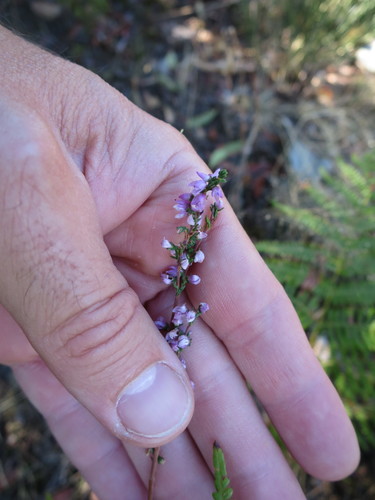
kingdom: Plantae
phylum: Tracheophyta
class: Magnoliopsida
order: Ericales
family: Ericaceae
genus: Calluna
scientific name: Calluna vulgaris
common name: Heather
